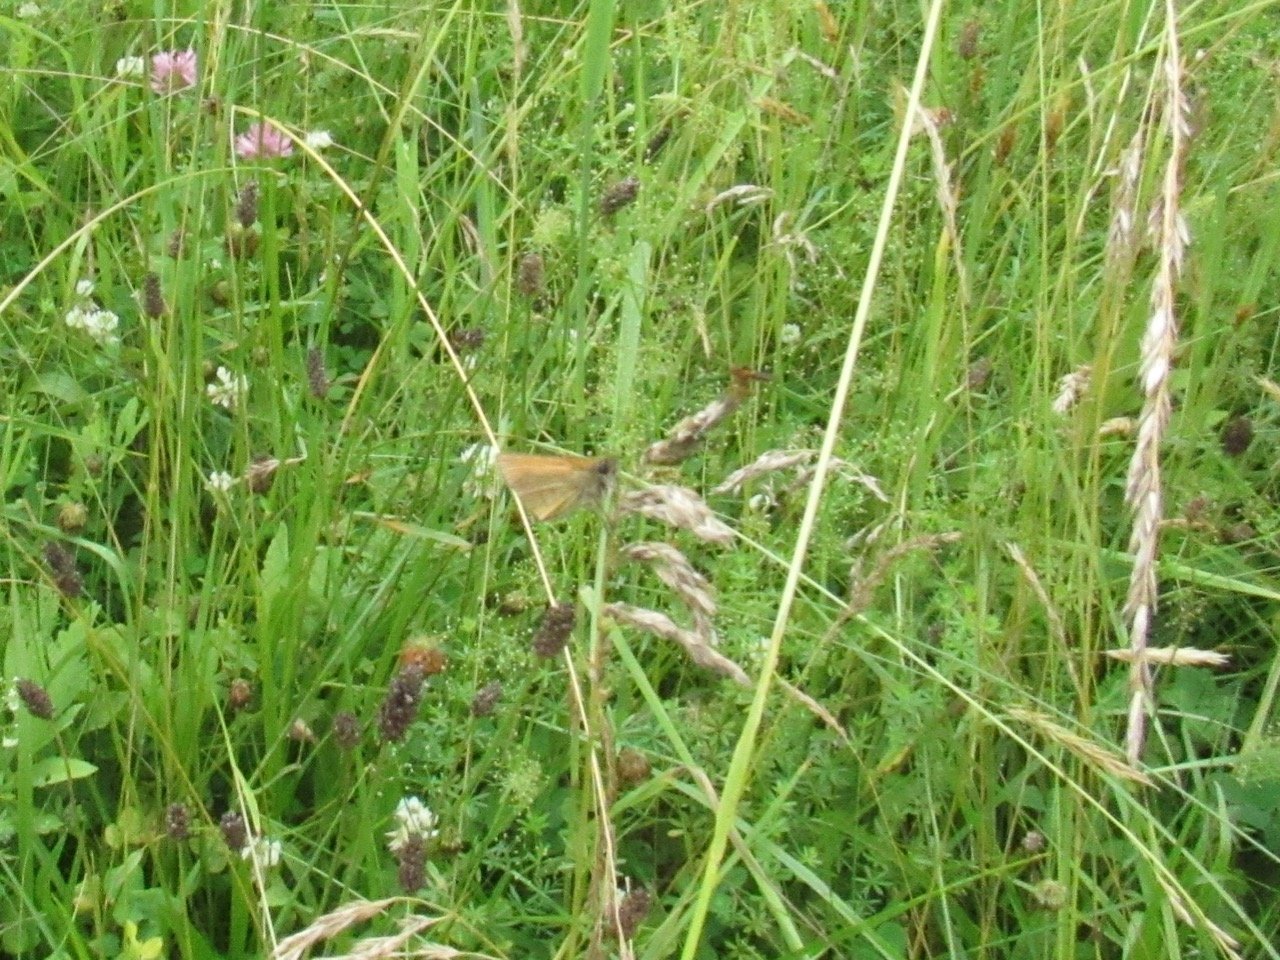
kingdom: Animalia
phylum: Arthropoda
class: Insecta
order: Lepidoptera
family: Hesperiidae
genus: Thymelicus
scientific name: Thymelicus lineola
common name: European Skipper
